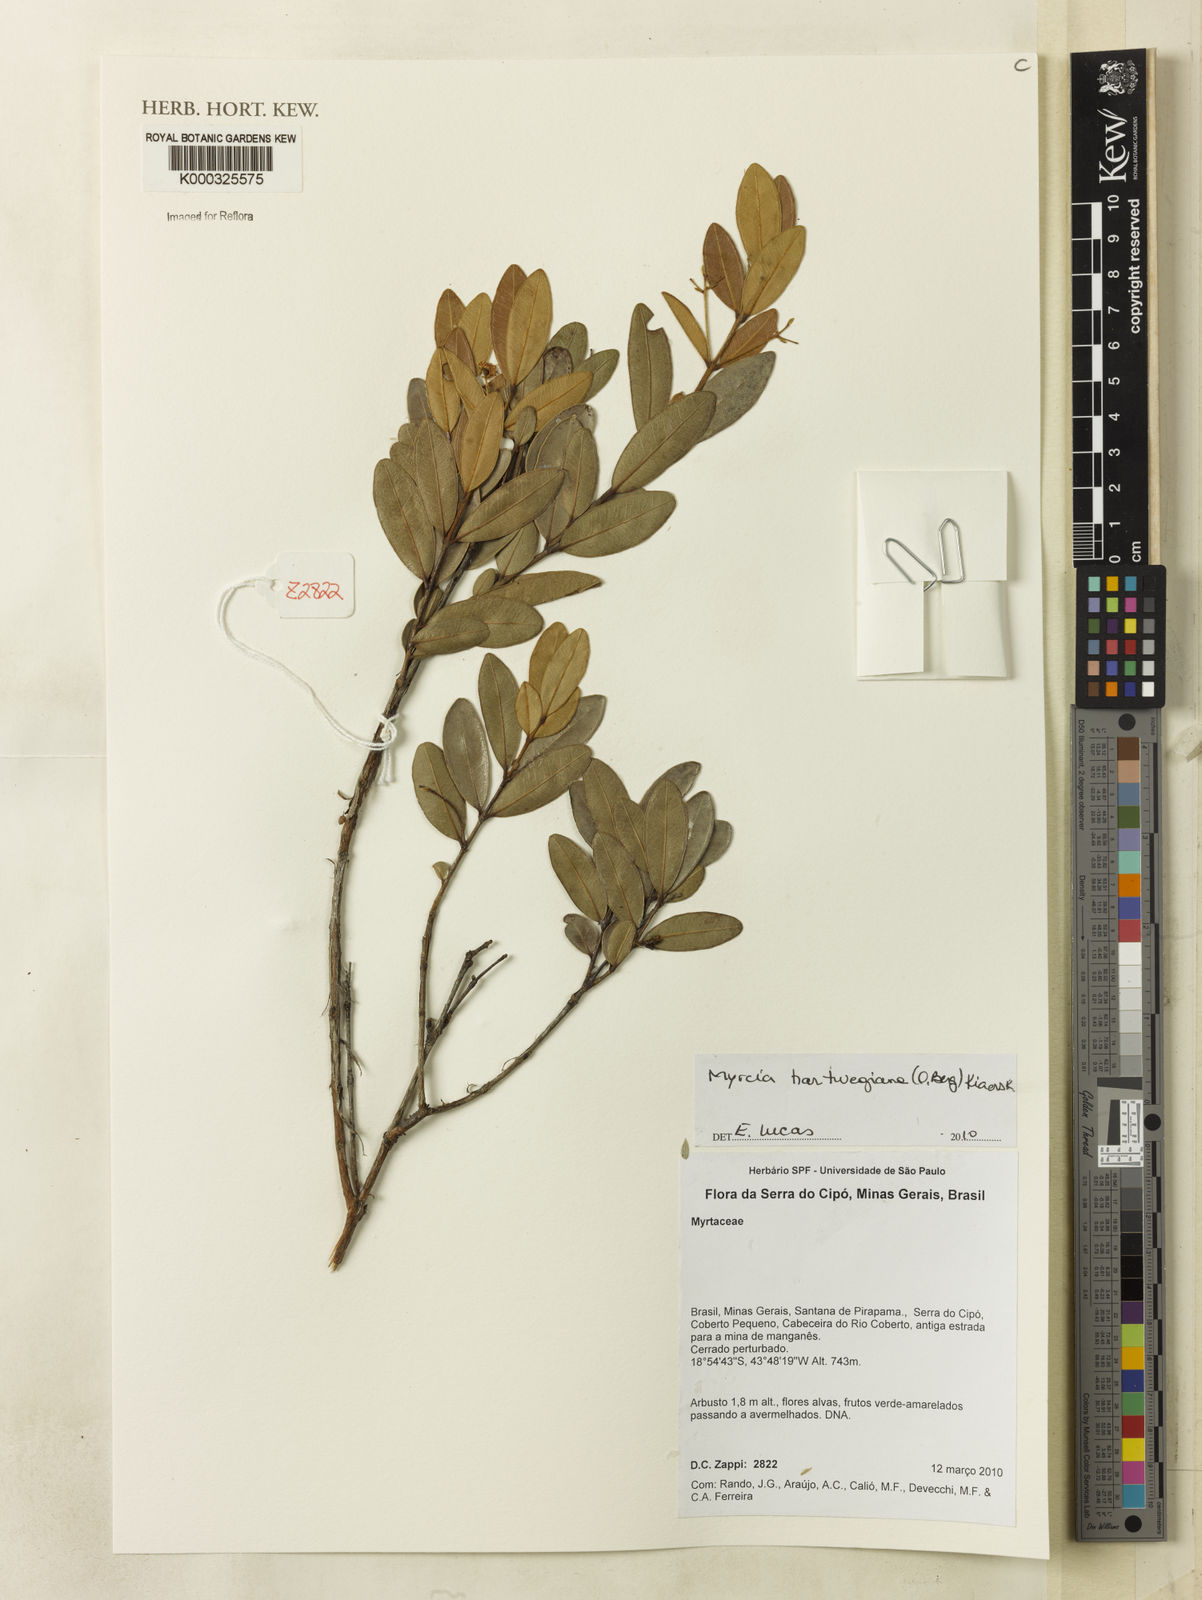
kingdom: Plantae
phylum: Tracheophyta
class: Magnoliopsida
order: Myrtales
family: Myrtaceae
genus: Myrcia
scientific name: Myrcia hartwegiana
